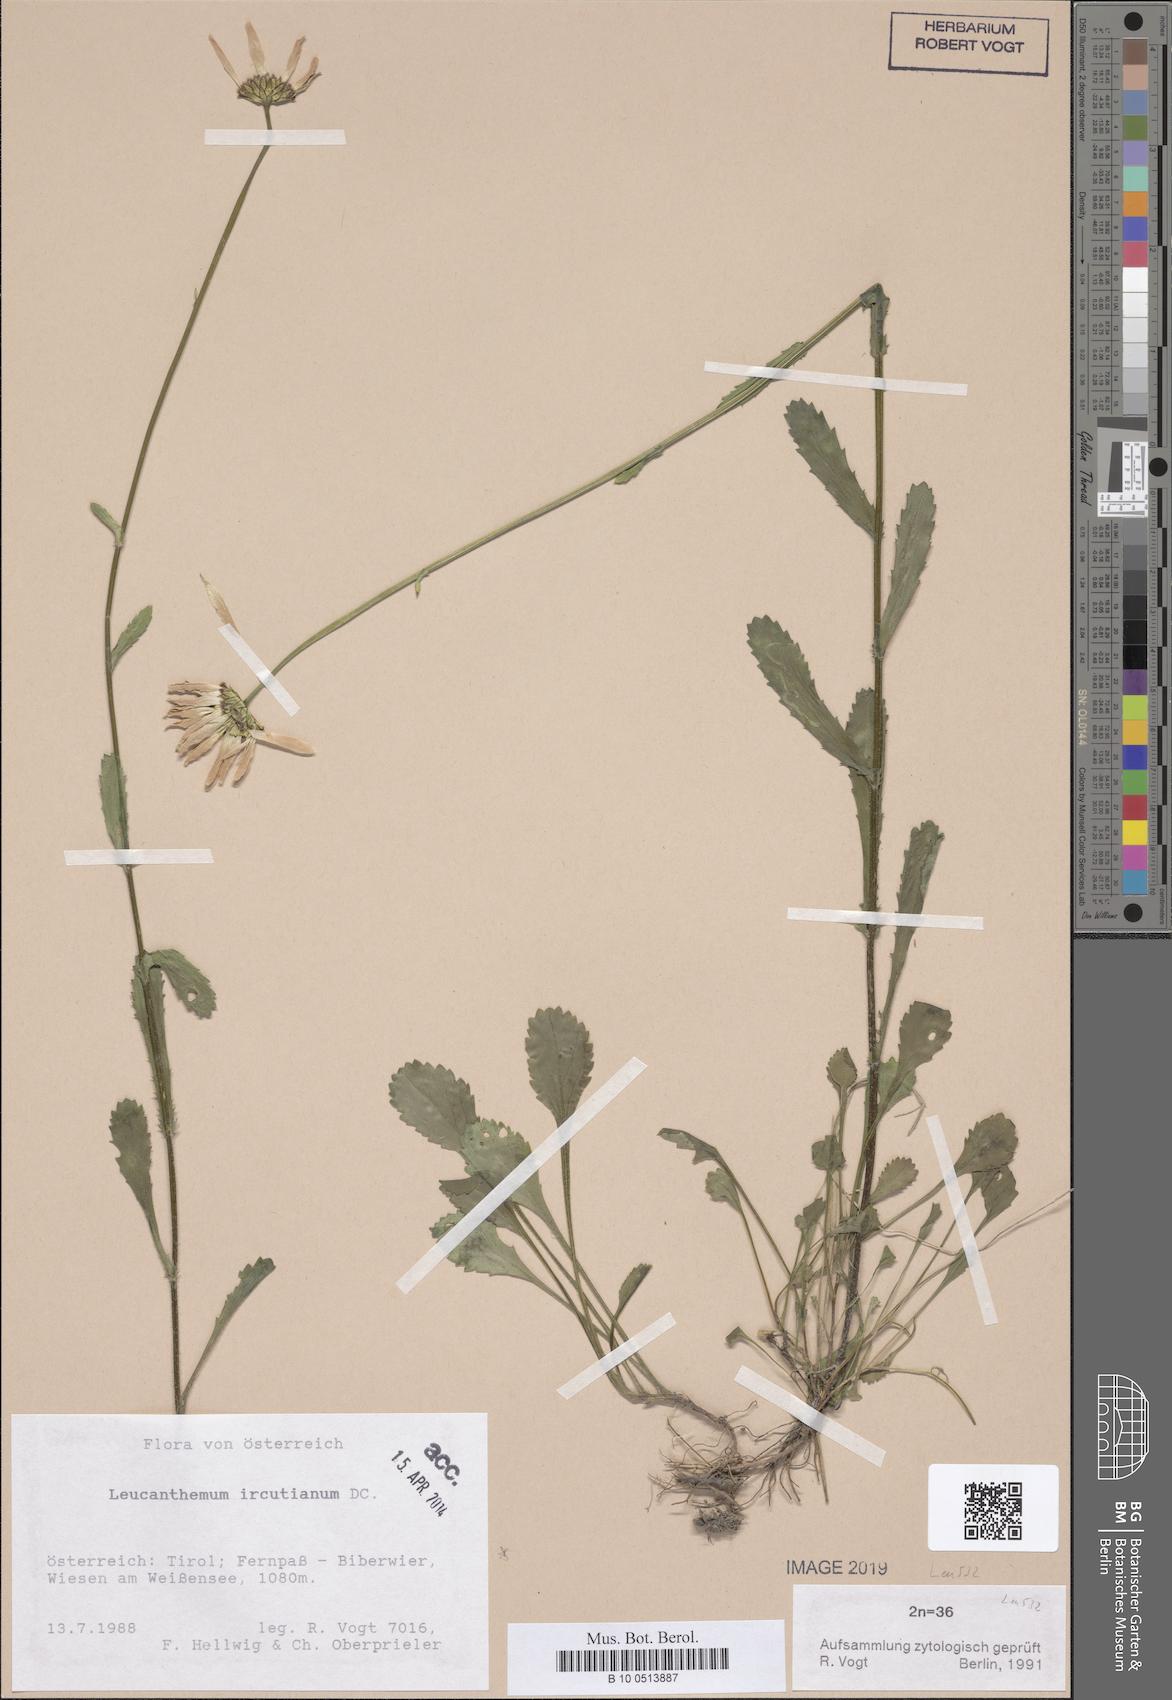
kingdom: Plantae
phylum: Tracheophyta
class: Magnoliopsida
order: Asterales
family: Asteraceae
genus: Leucanthemum
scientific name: Leucanthemum ircutianum
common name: Daisy
